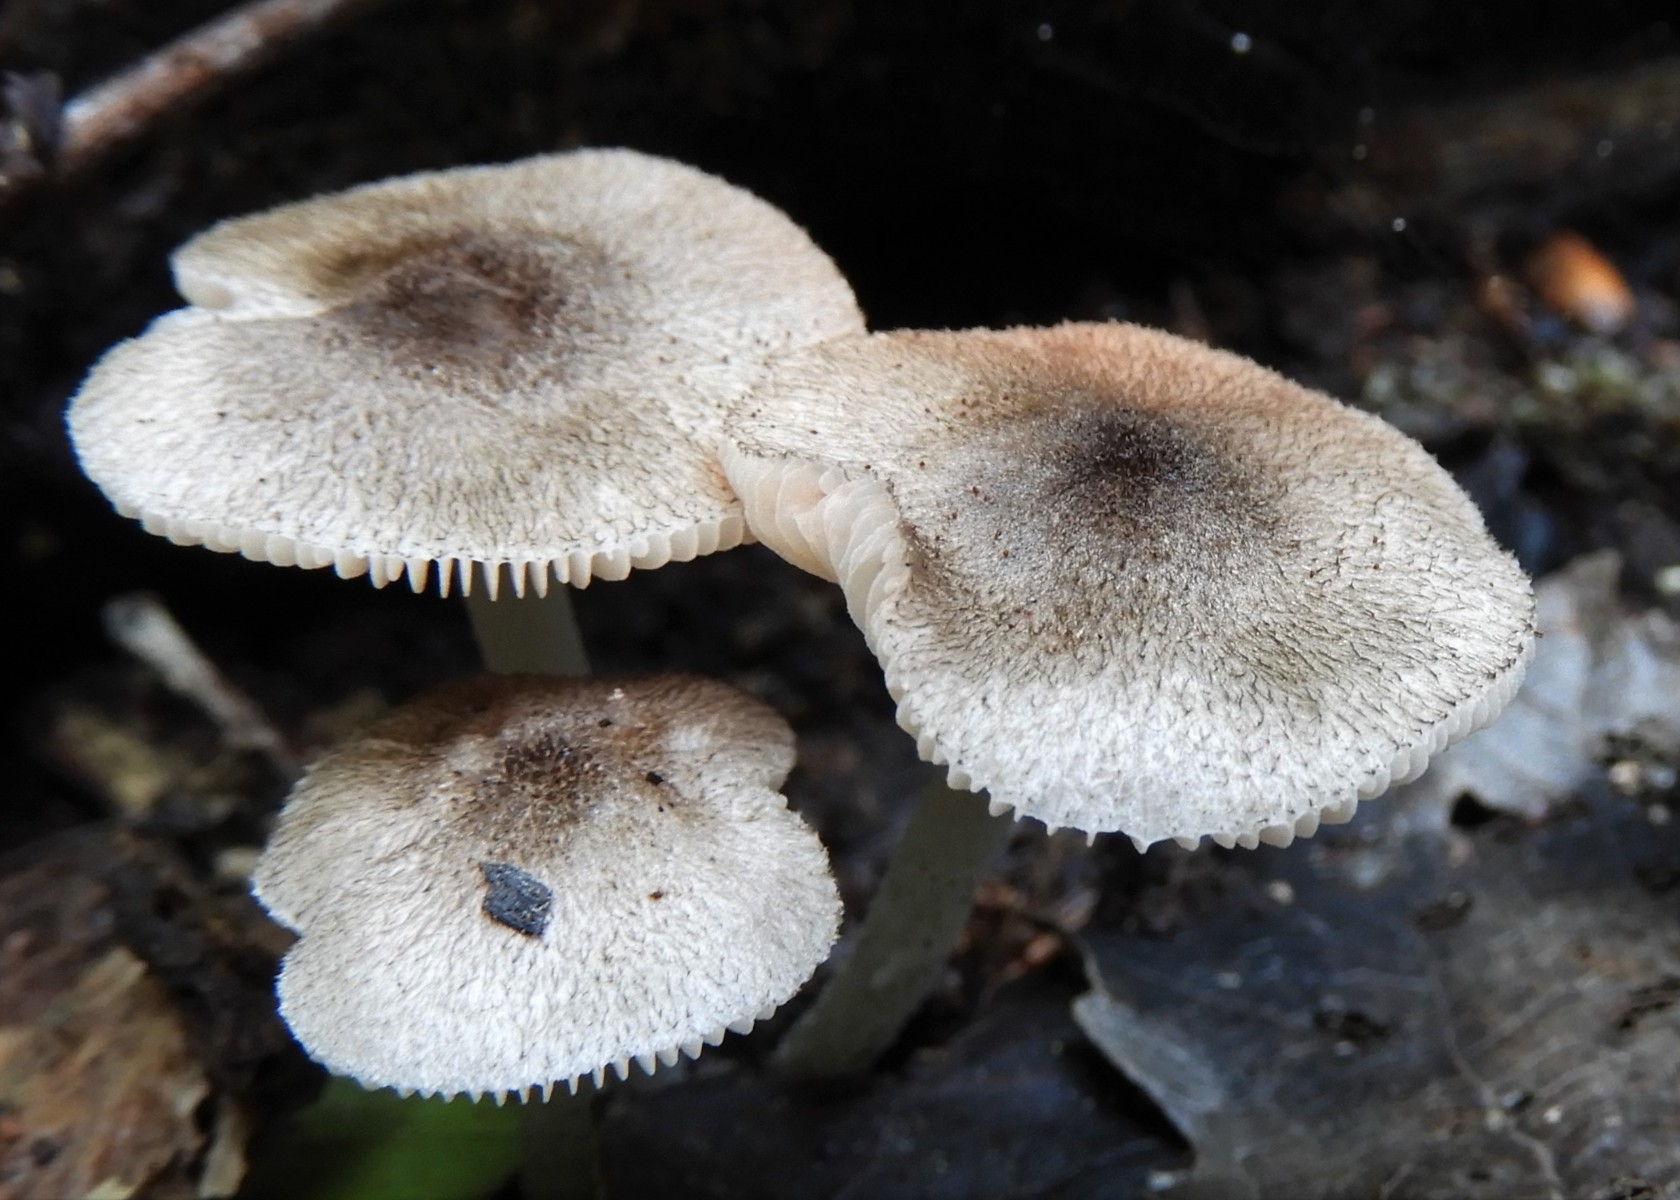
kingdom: Fungi
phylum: Basidiomycota
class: Agaricomycetes
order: Agaricales
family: Pluteaceae
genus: Pluteus
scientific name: Pluteus
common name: stivhåret skærmhat
